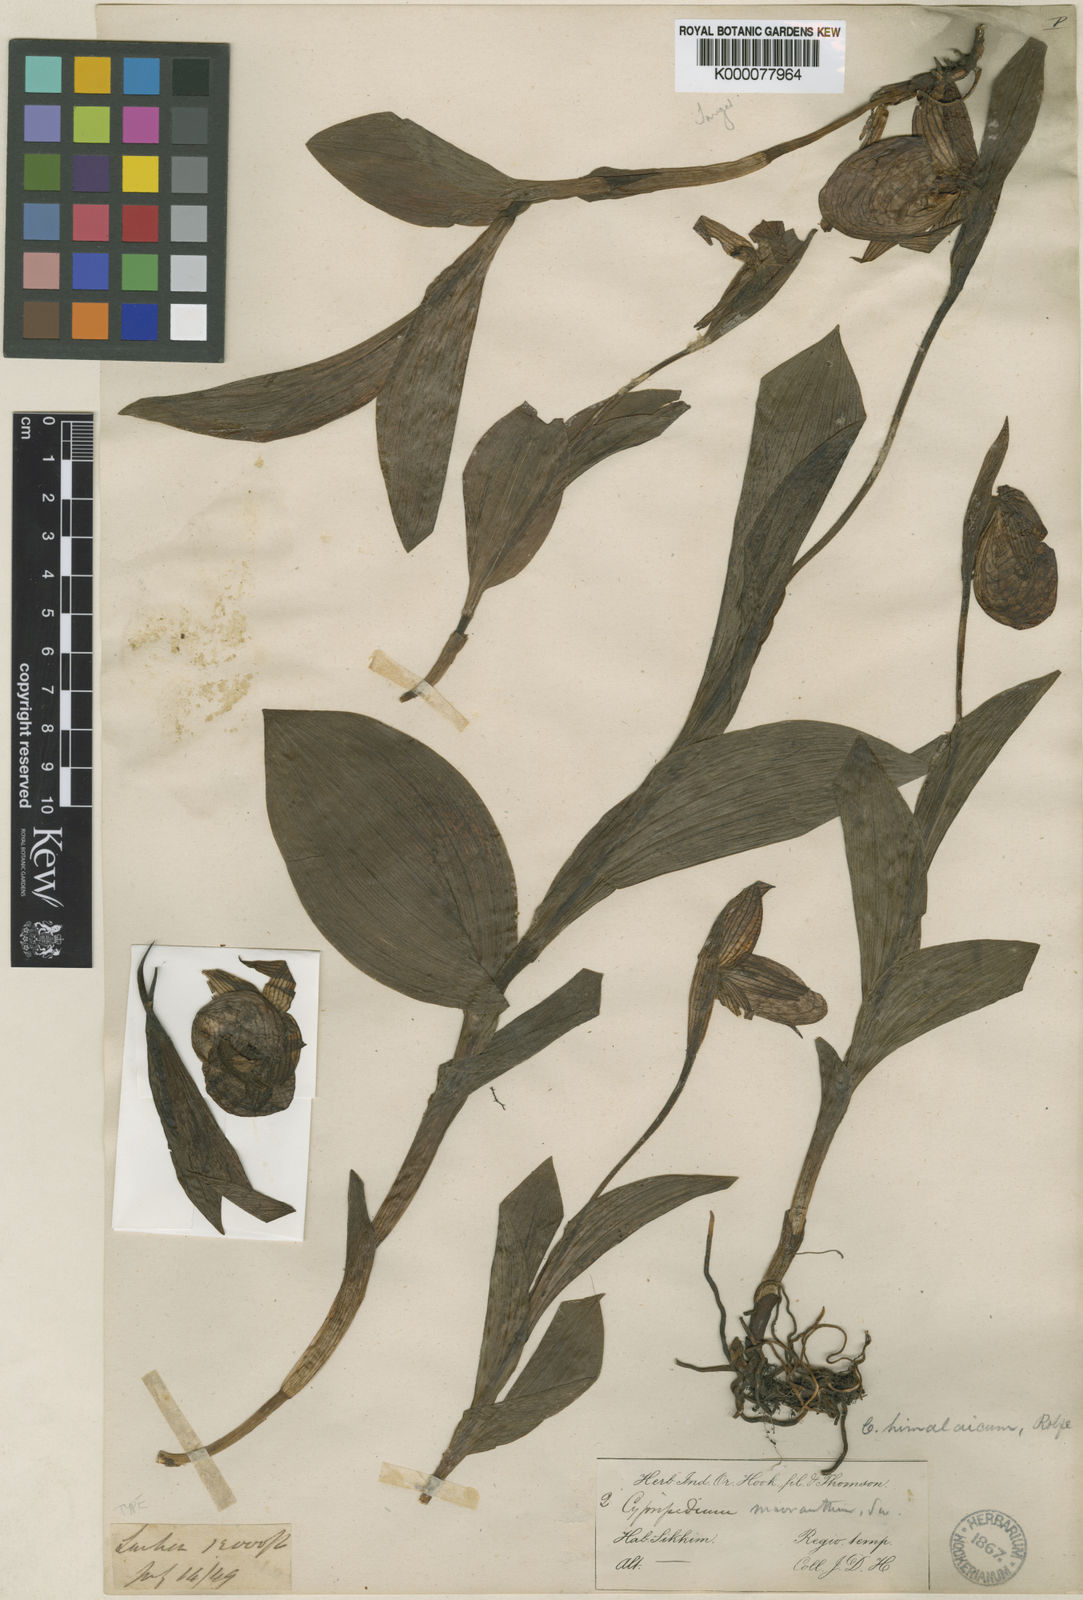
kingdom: Plantae
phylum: Tracheophyta
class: Liliopsida
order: Asparagales
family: Orchidaceae
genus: Cypripedium
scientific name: Cypripedium himalaicum
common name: Himalayan cypripedium
